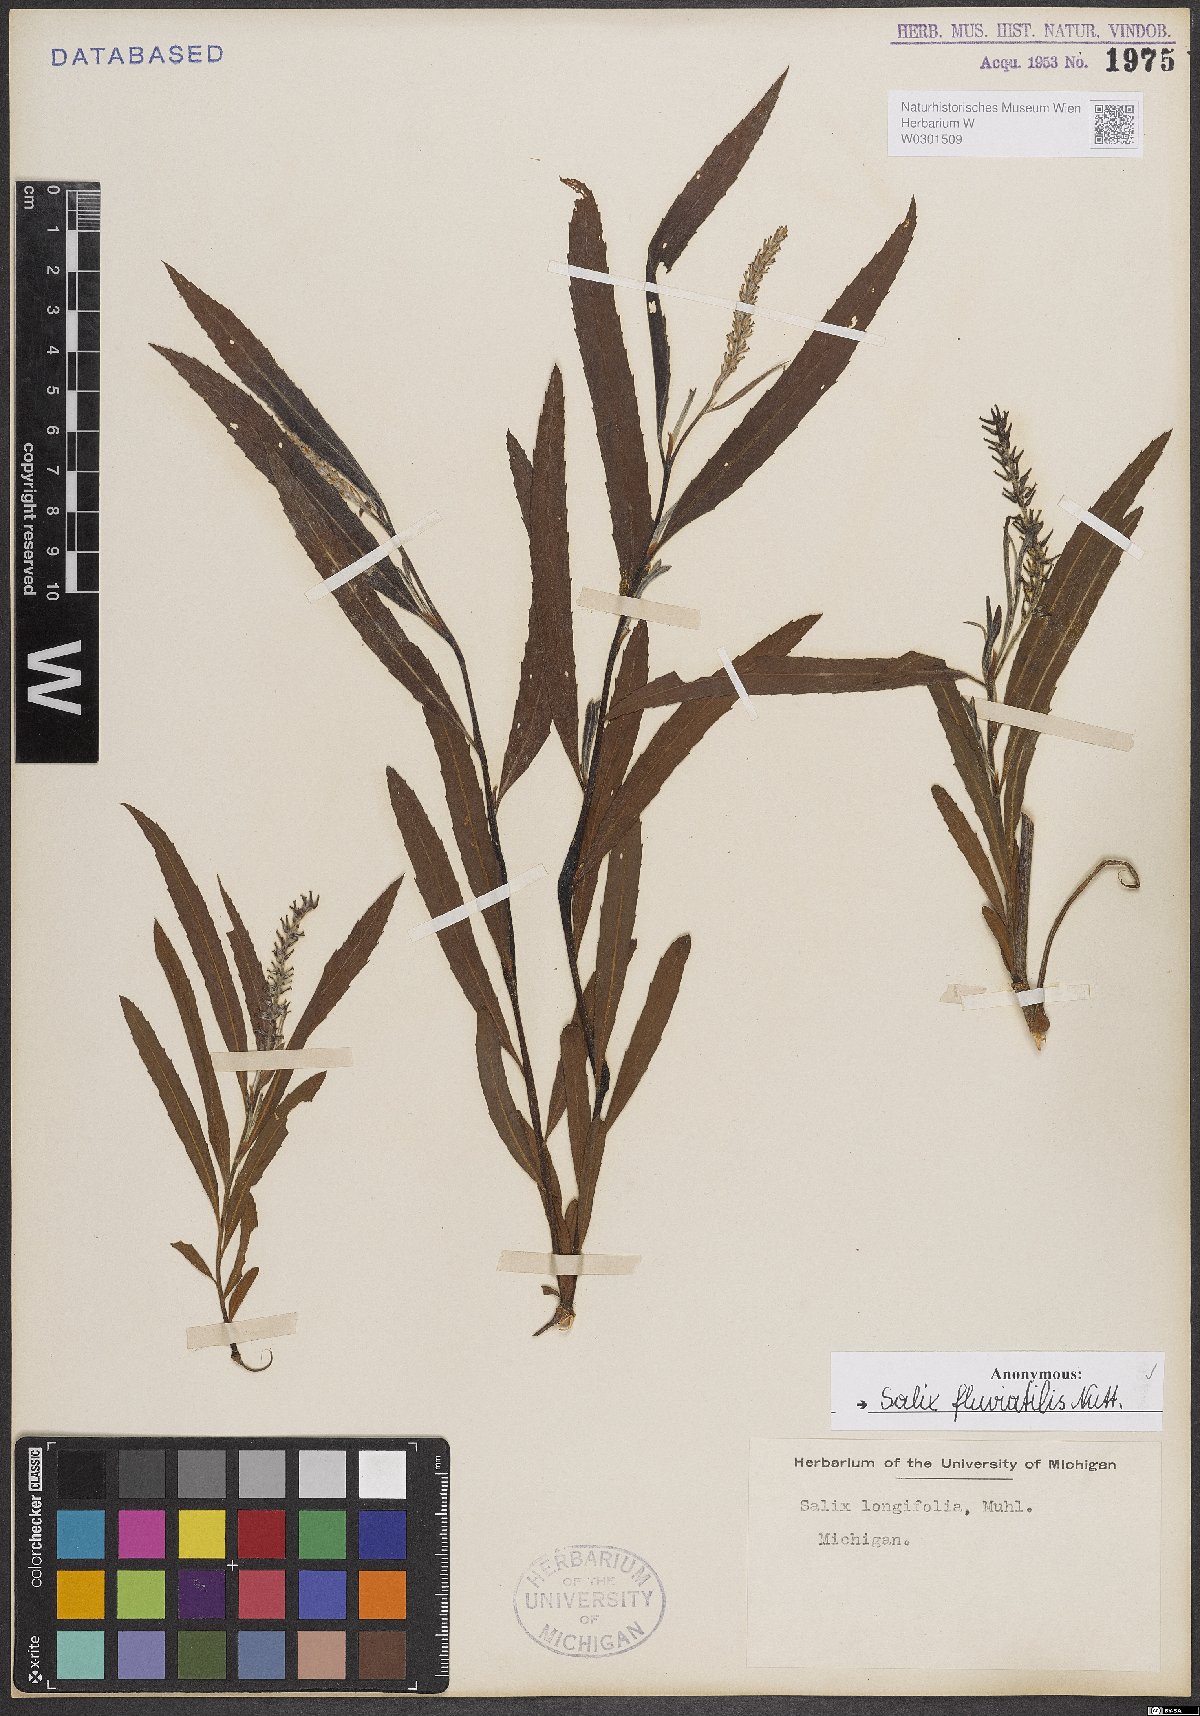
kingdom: Plantae
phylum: Tracheophyta
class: Magnoliopsida
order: Malpighiales
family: Salicaceae
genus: Salix
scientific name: Salix melanopsis
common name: Dusky willow
